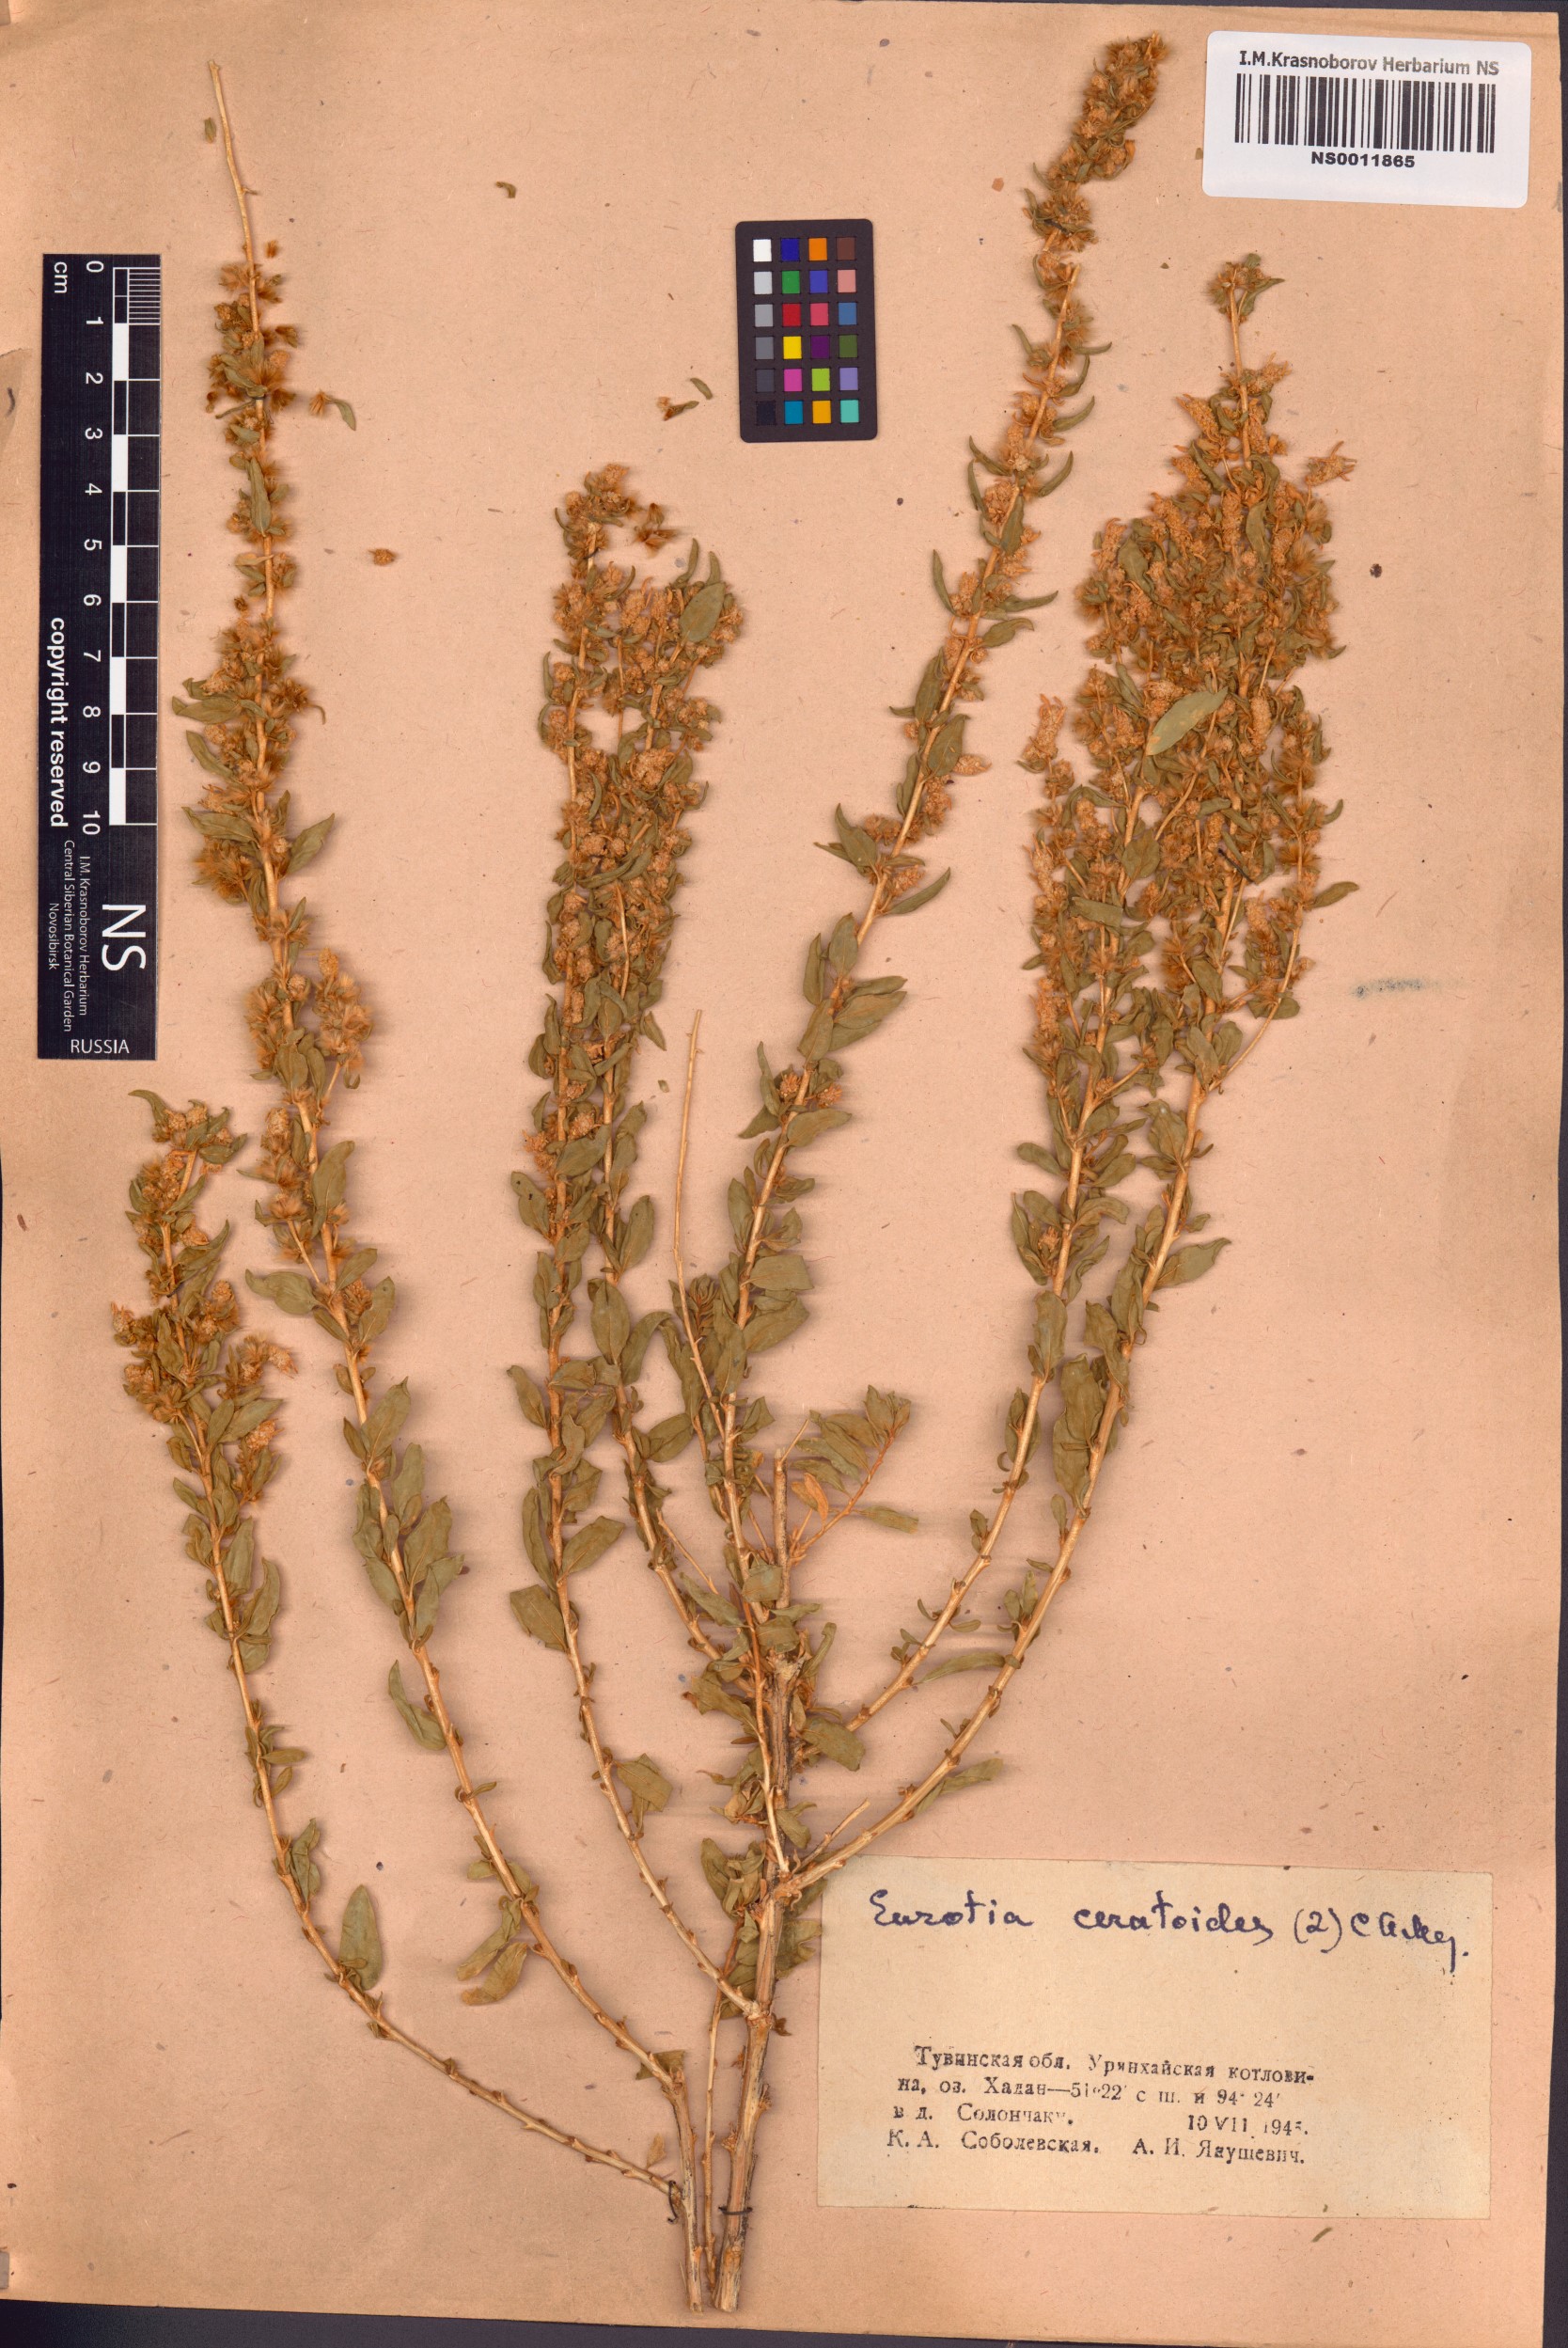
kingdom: Plantae
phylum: Tracheophyta
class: Magnoliopsida
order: Caryophyllales
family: Amaranthaceae
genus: Krascheninnikovia
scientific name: Krascheninnikovia ceratoides
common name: Pamirian winterfat
